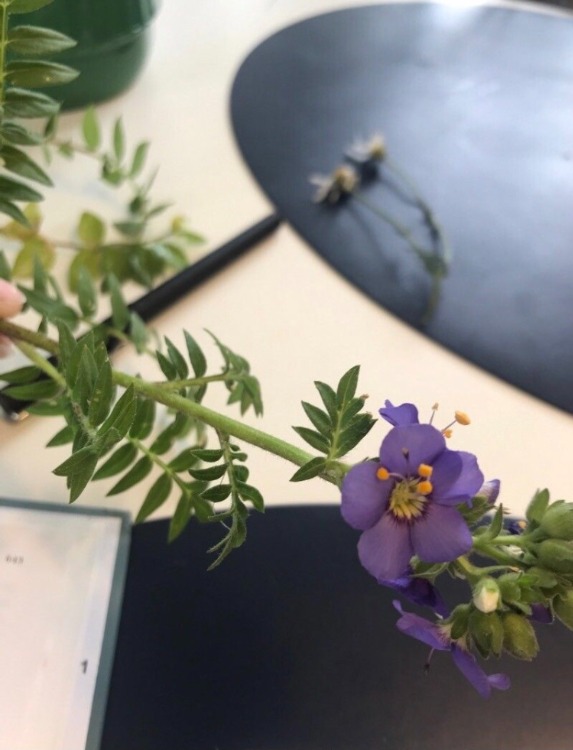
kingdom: Plantae
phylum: Tracheophyta
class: Magnoliopsida
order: Ericales
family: Polemoniaceae
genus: Polemonium
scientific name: Polemonium caeruleum
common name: Jakobsstige
